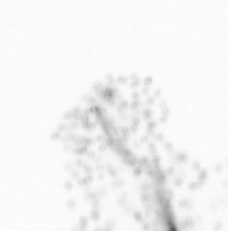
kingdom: Chromista
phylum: Ochrophyta
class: Bacillariophyceae
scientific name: Bacillariophyceae
